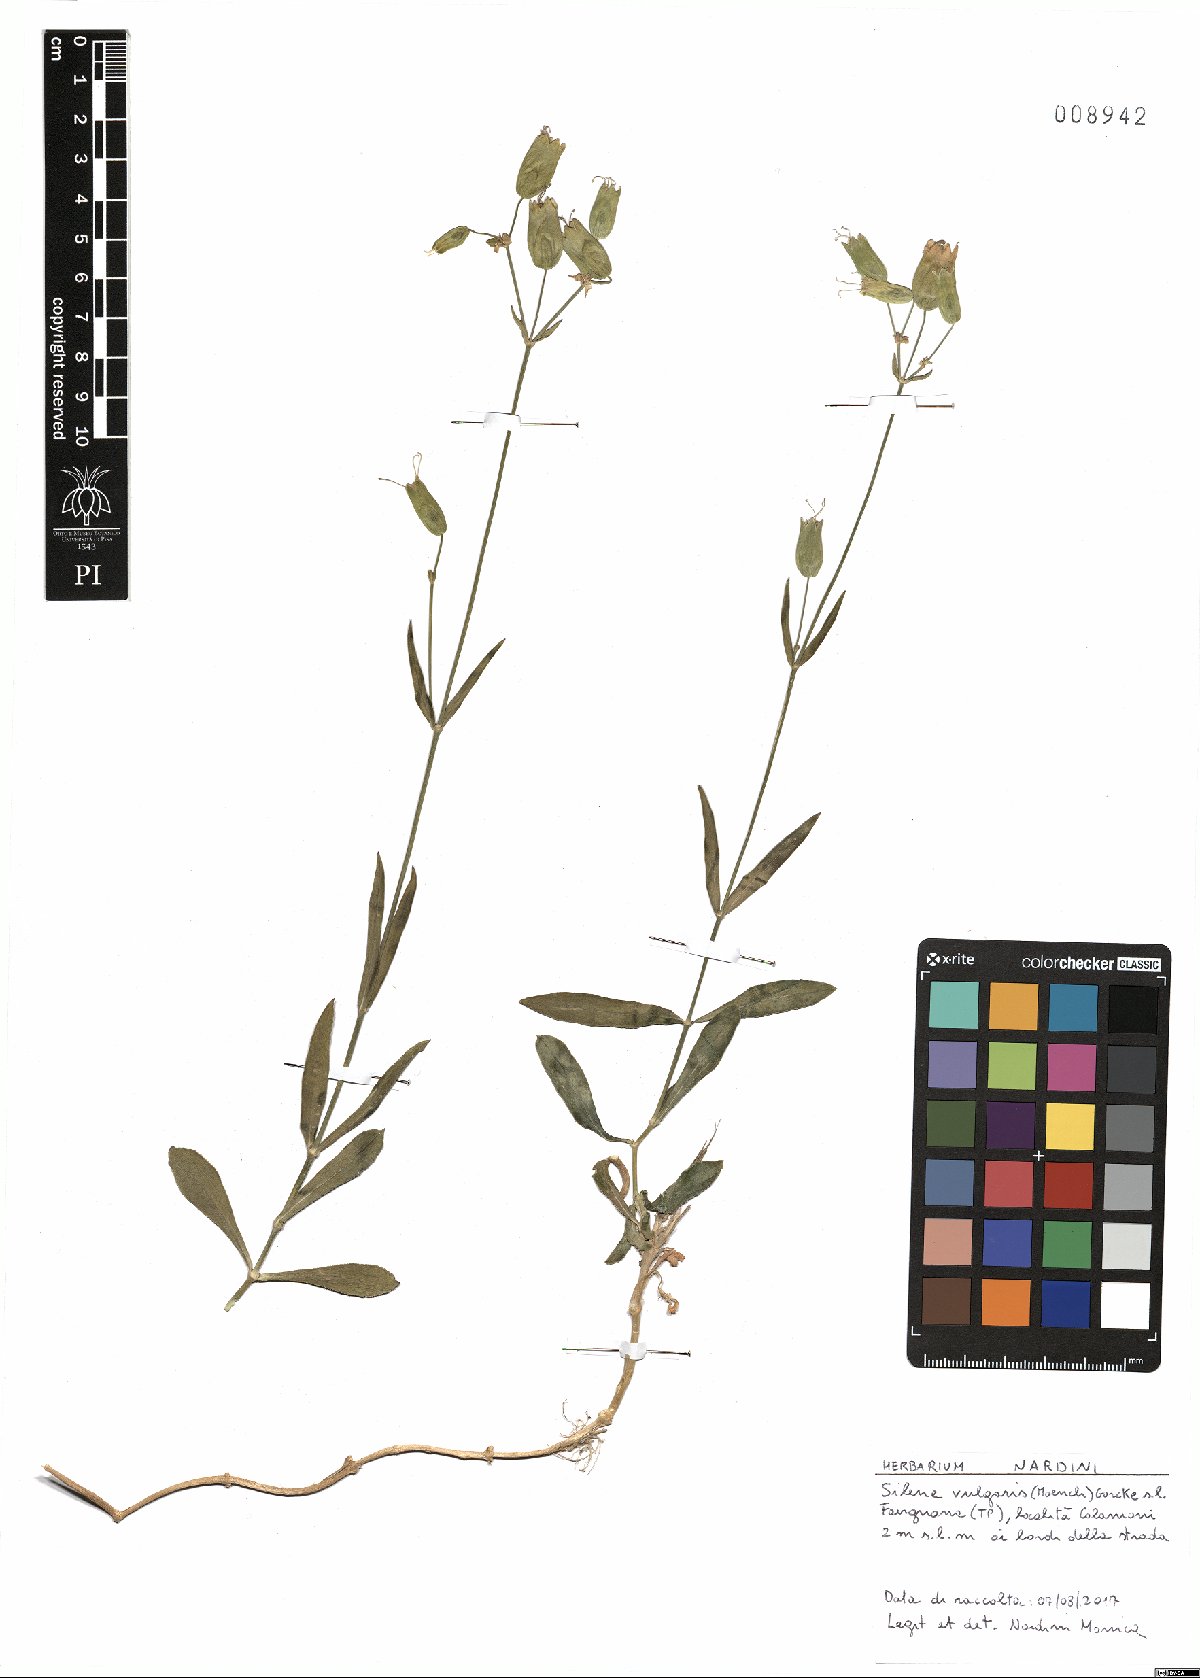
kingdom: Plantae
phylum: Tracheophyta
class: Magnoliopsida
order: Caryophyllales
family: Caryophyllaceae
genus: Silene
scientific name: Silene vulgaris
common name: Bladder campion
